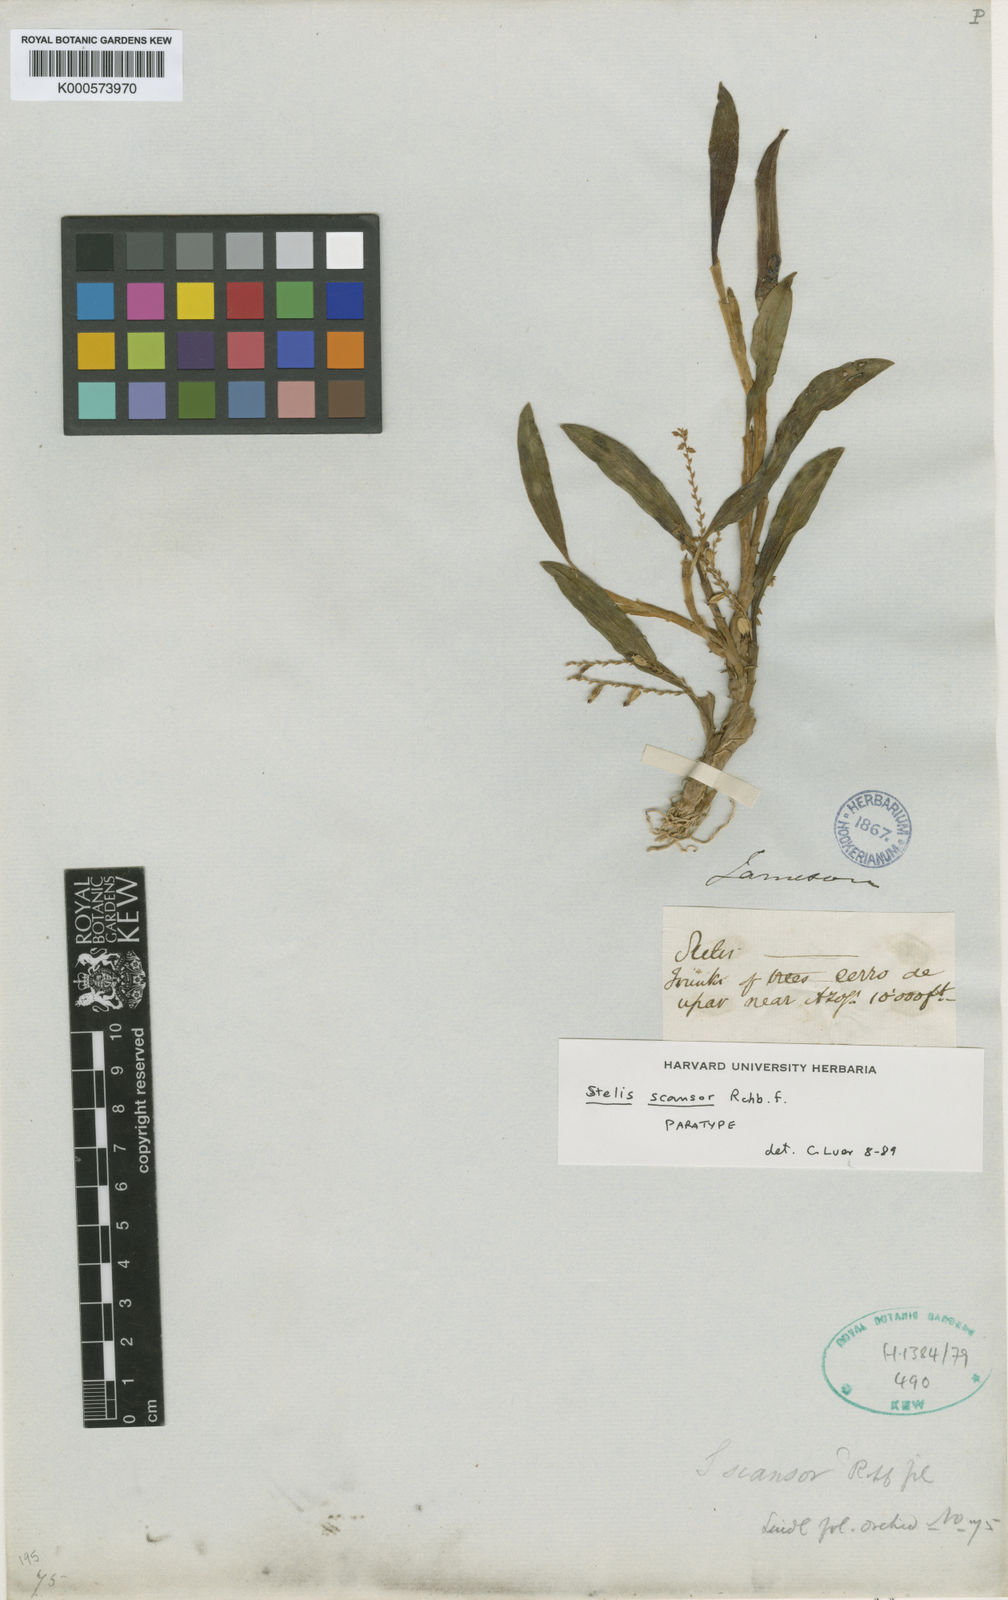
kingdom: Plantae
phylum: Tracheophyta
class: Liliopsida
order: Asparagales
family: Orchidaceae
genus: Stelis
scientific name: Stelis scansor
